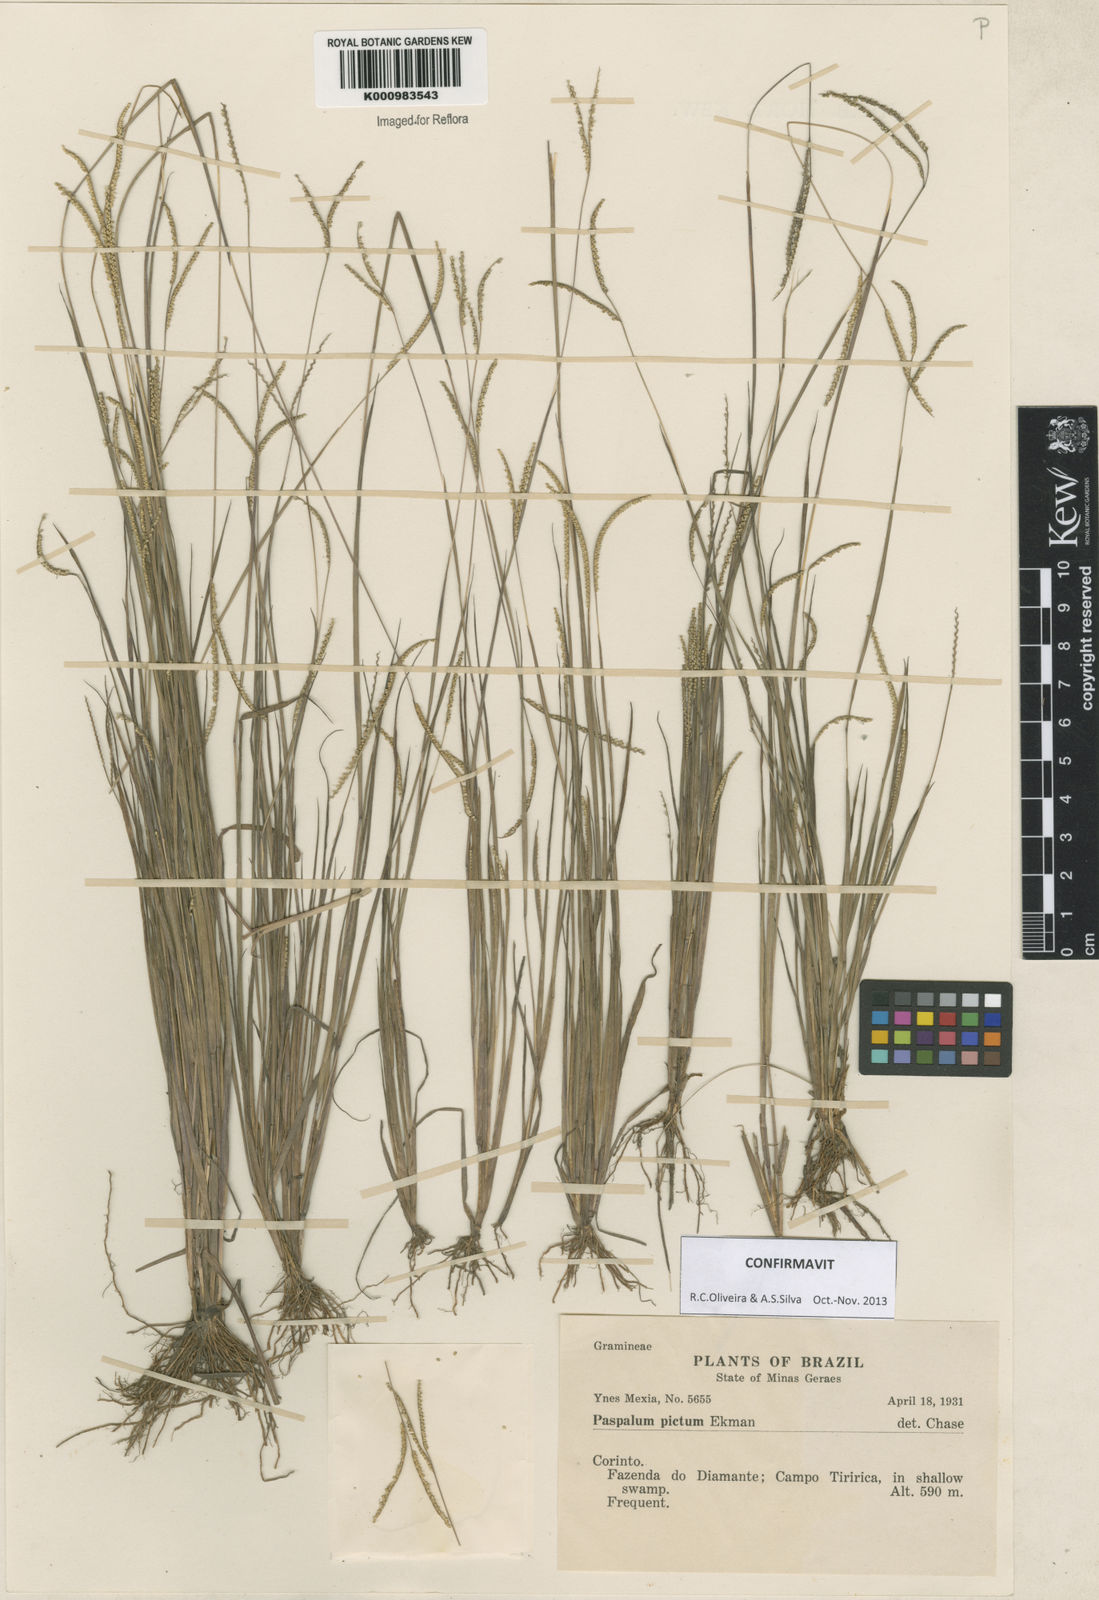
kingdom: Plantae
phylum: Tracheophyta
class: Liliopsida
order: Poales
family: Poaceae
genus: Paspalum
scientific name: Paspalum pictum
